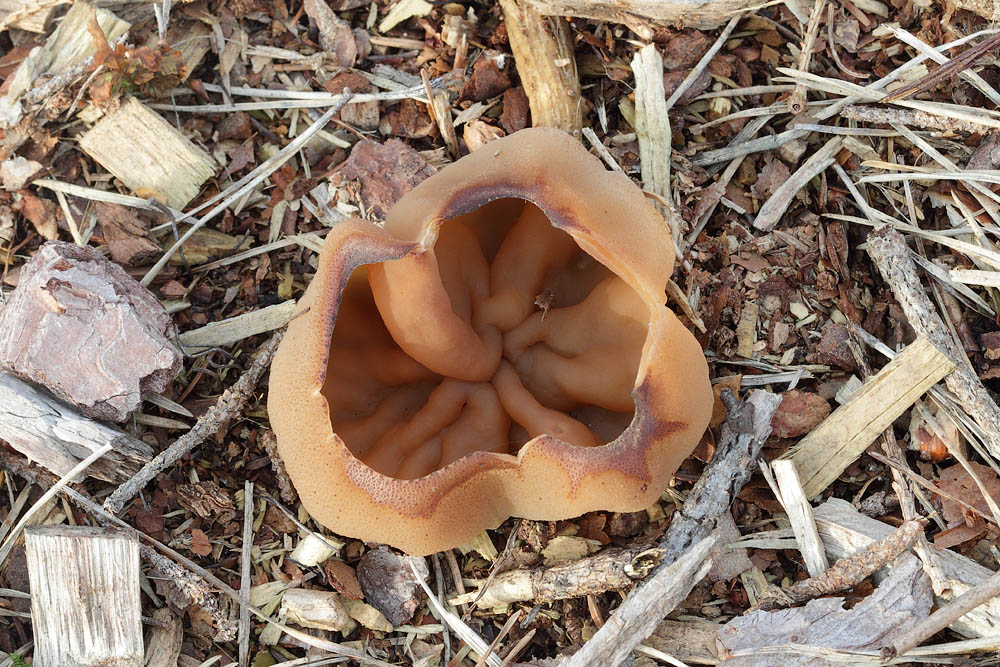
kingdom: Fungi
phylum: Ascomycota
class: Pezizomycetes
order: Pezizales
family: Pezizaceae
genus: Peziza
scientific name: Peziza vesiculosa
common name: blære-bægersvamp
